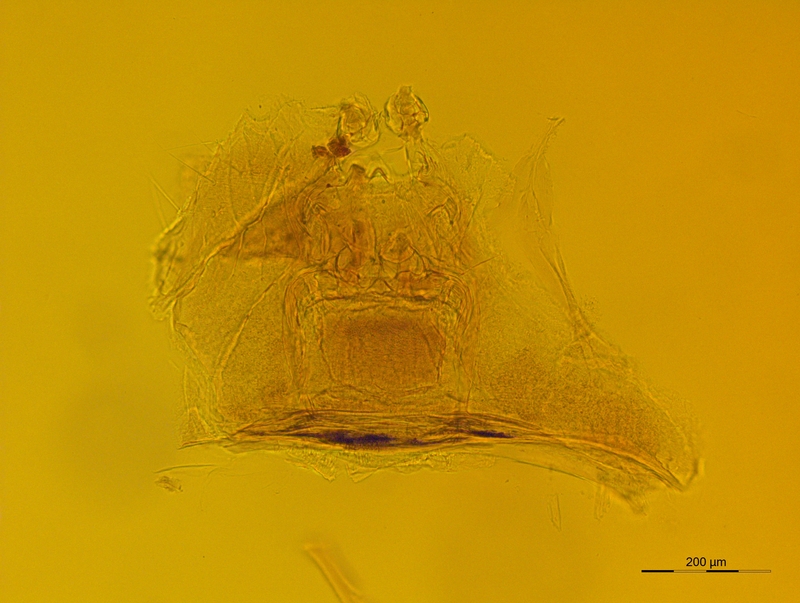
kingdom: Animalia
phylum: Arthropoda
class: Diplopoda
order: Julida
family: Trichoblaniulidae
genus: Trichoblaniulus
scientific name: Trichoblaniulus hirsutus
